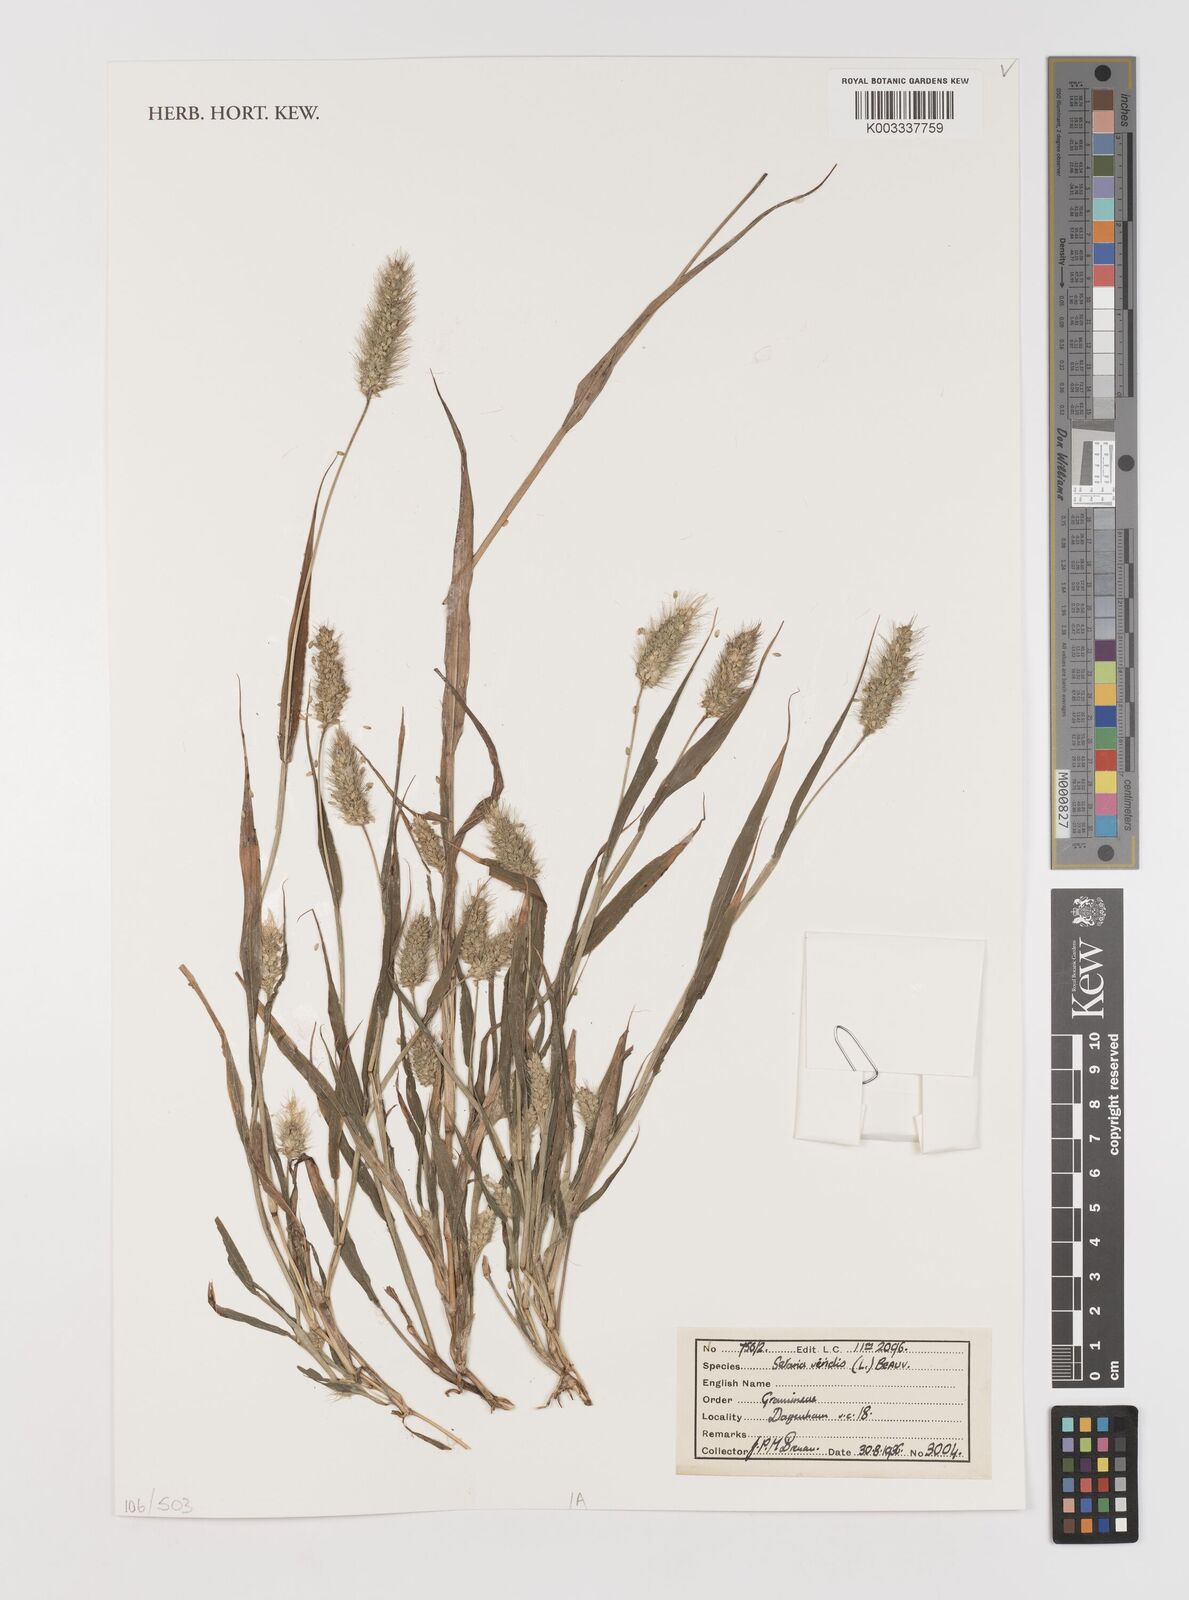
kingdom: Plantae
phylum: Tracheophyta
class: Liliopsida
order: Poales
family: Poaceae
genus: Setaria
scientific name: Setaria viridis
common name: Green bristlegrass
